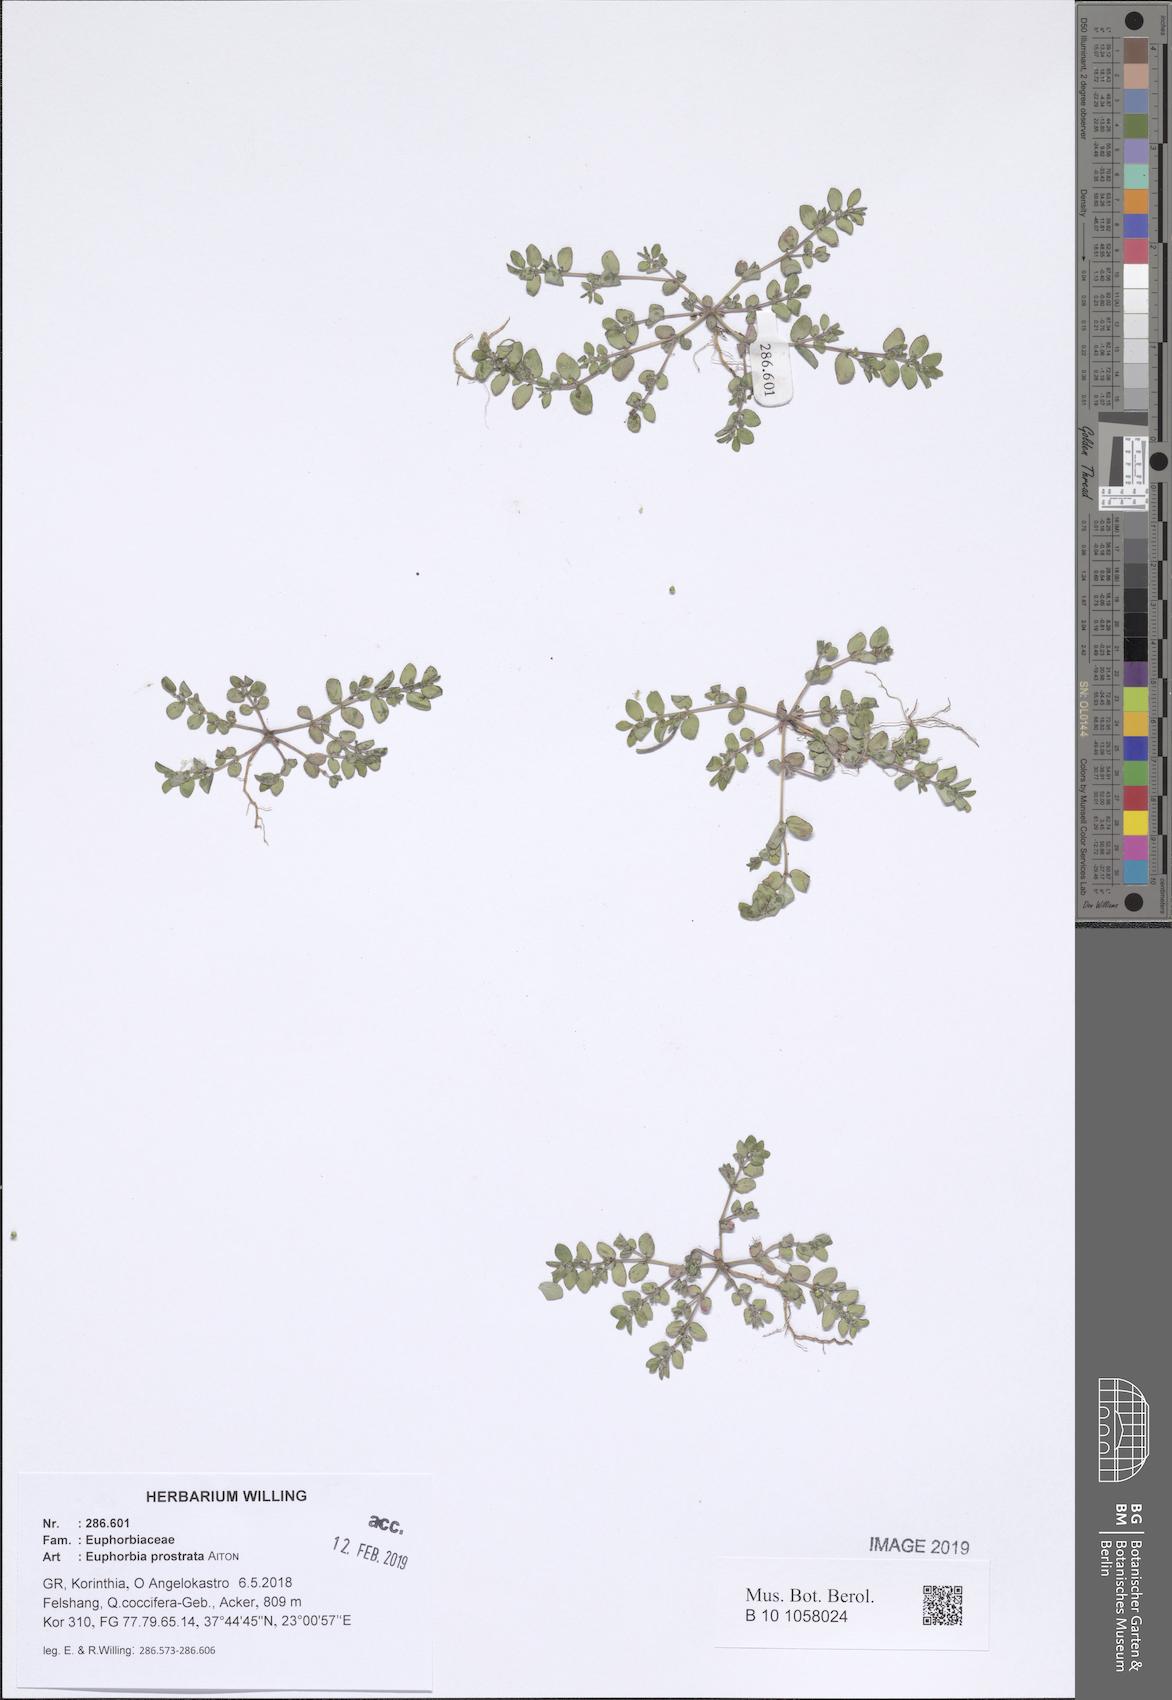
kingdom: Plantae
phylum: Tracheophyta
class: Magnoliopsida
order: Malpighiales
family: Euphorbiaceae
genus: Euphorbia
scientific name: Euphorbia prostrata
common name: Prostrate sandmat
